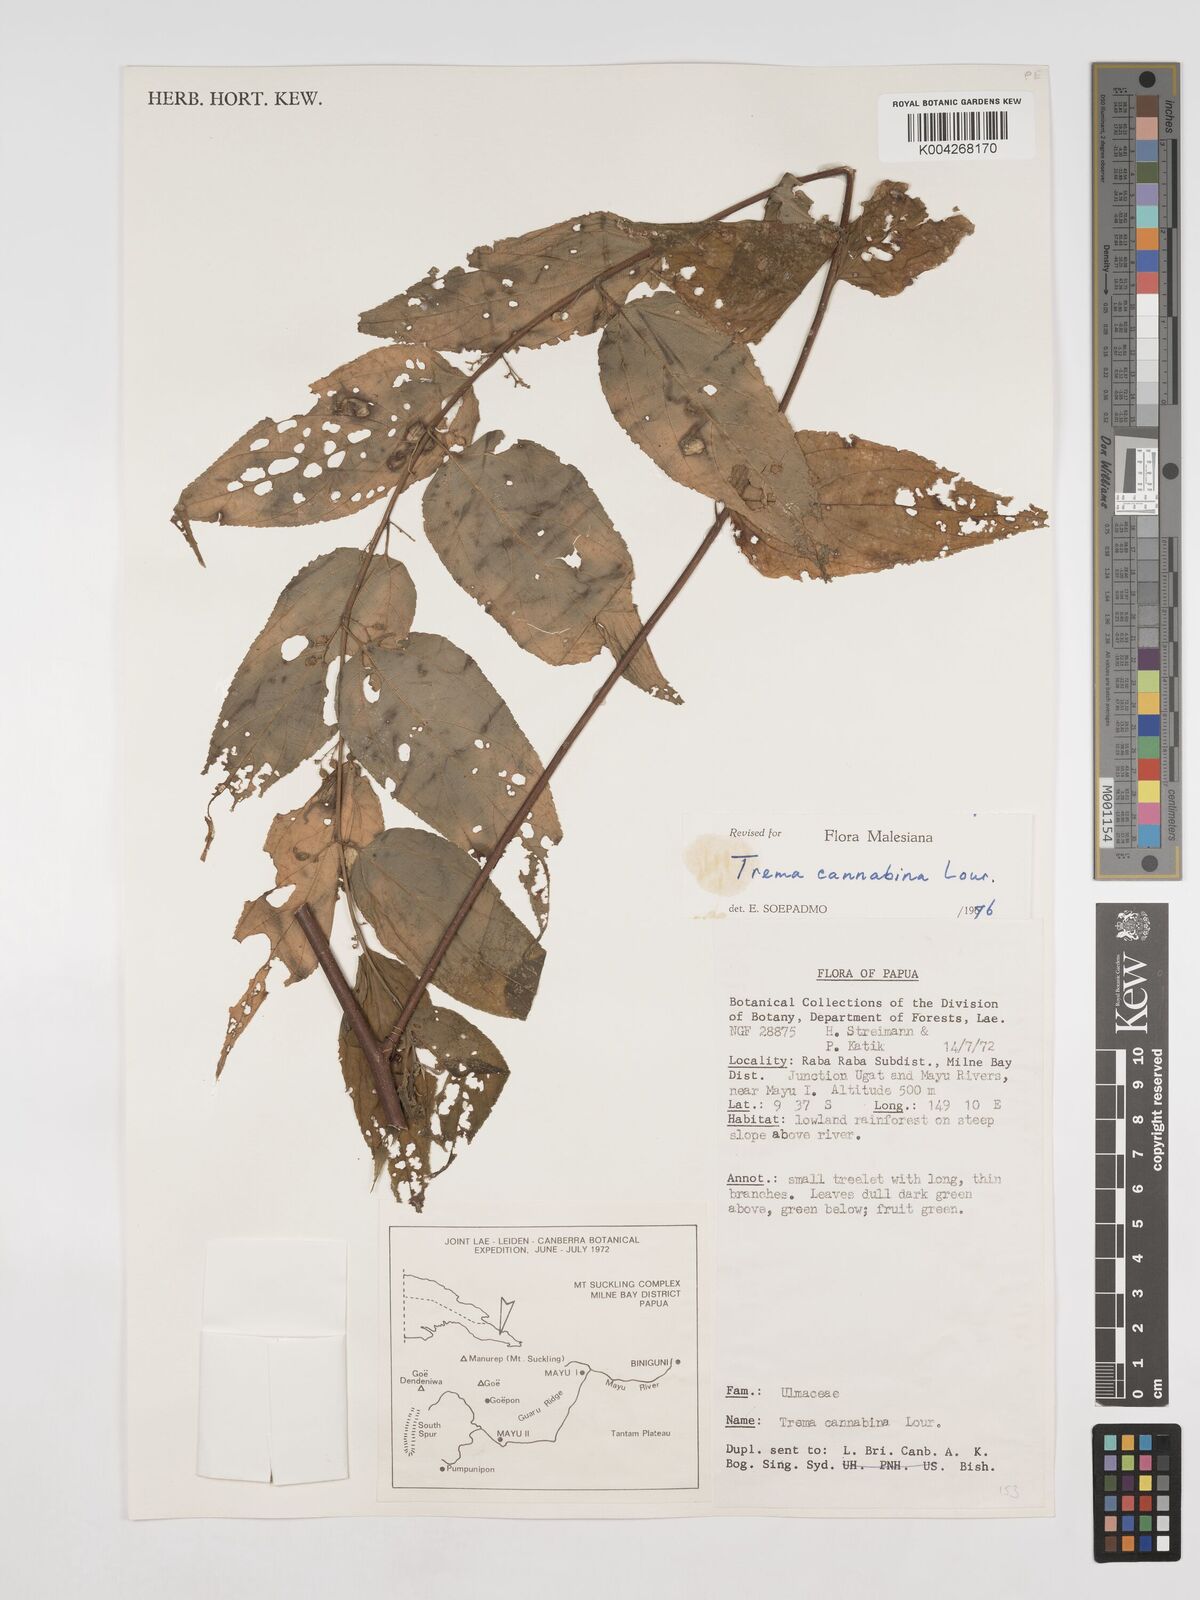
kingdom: Plantae
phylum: Tracheophyta
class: Magnoliopsida
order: Rosales
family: Cannabaceae
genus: Trema
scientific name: Trema
